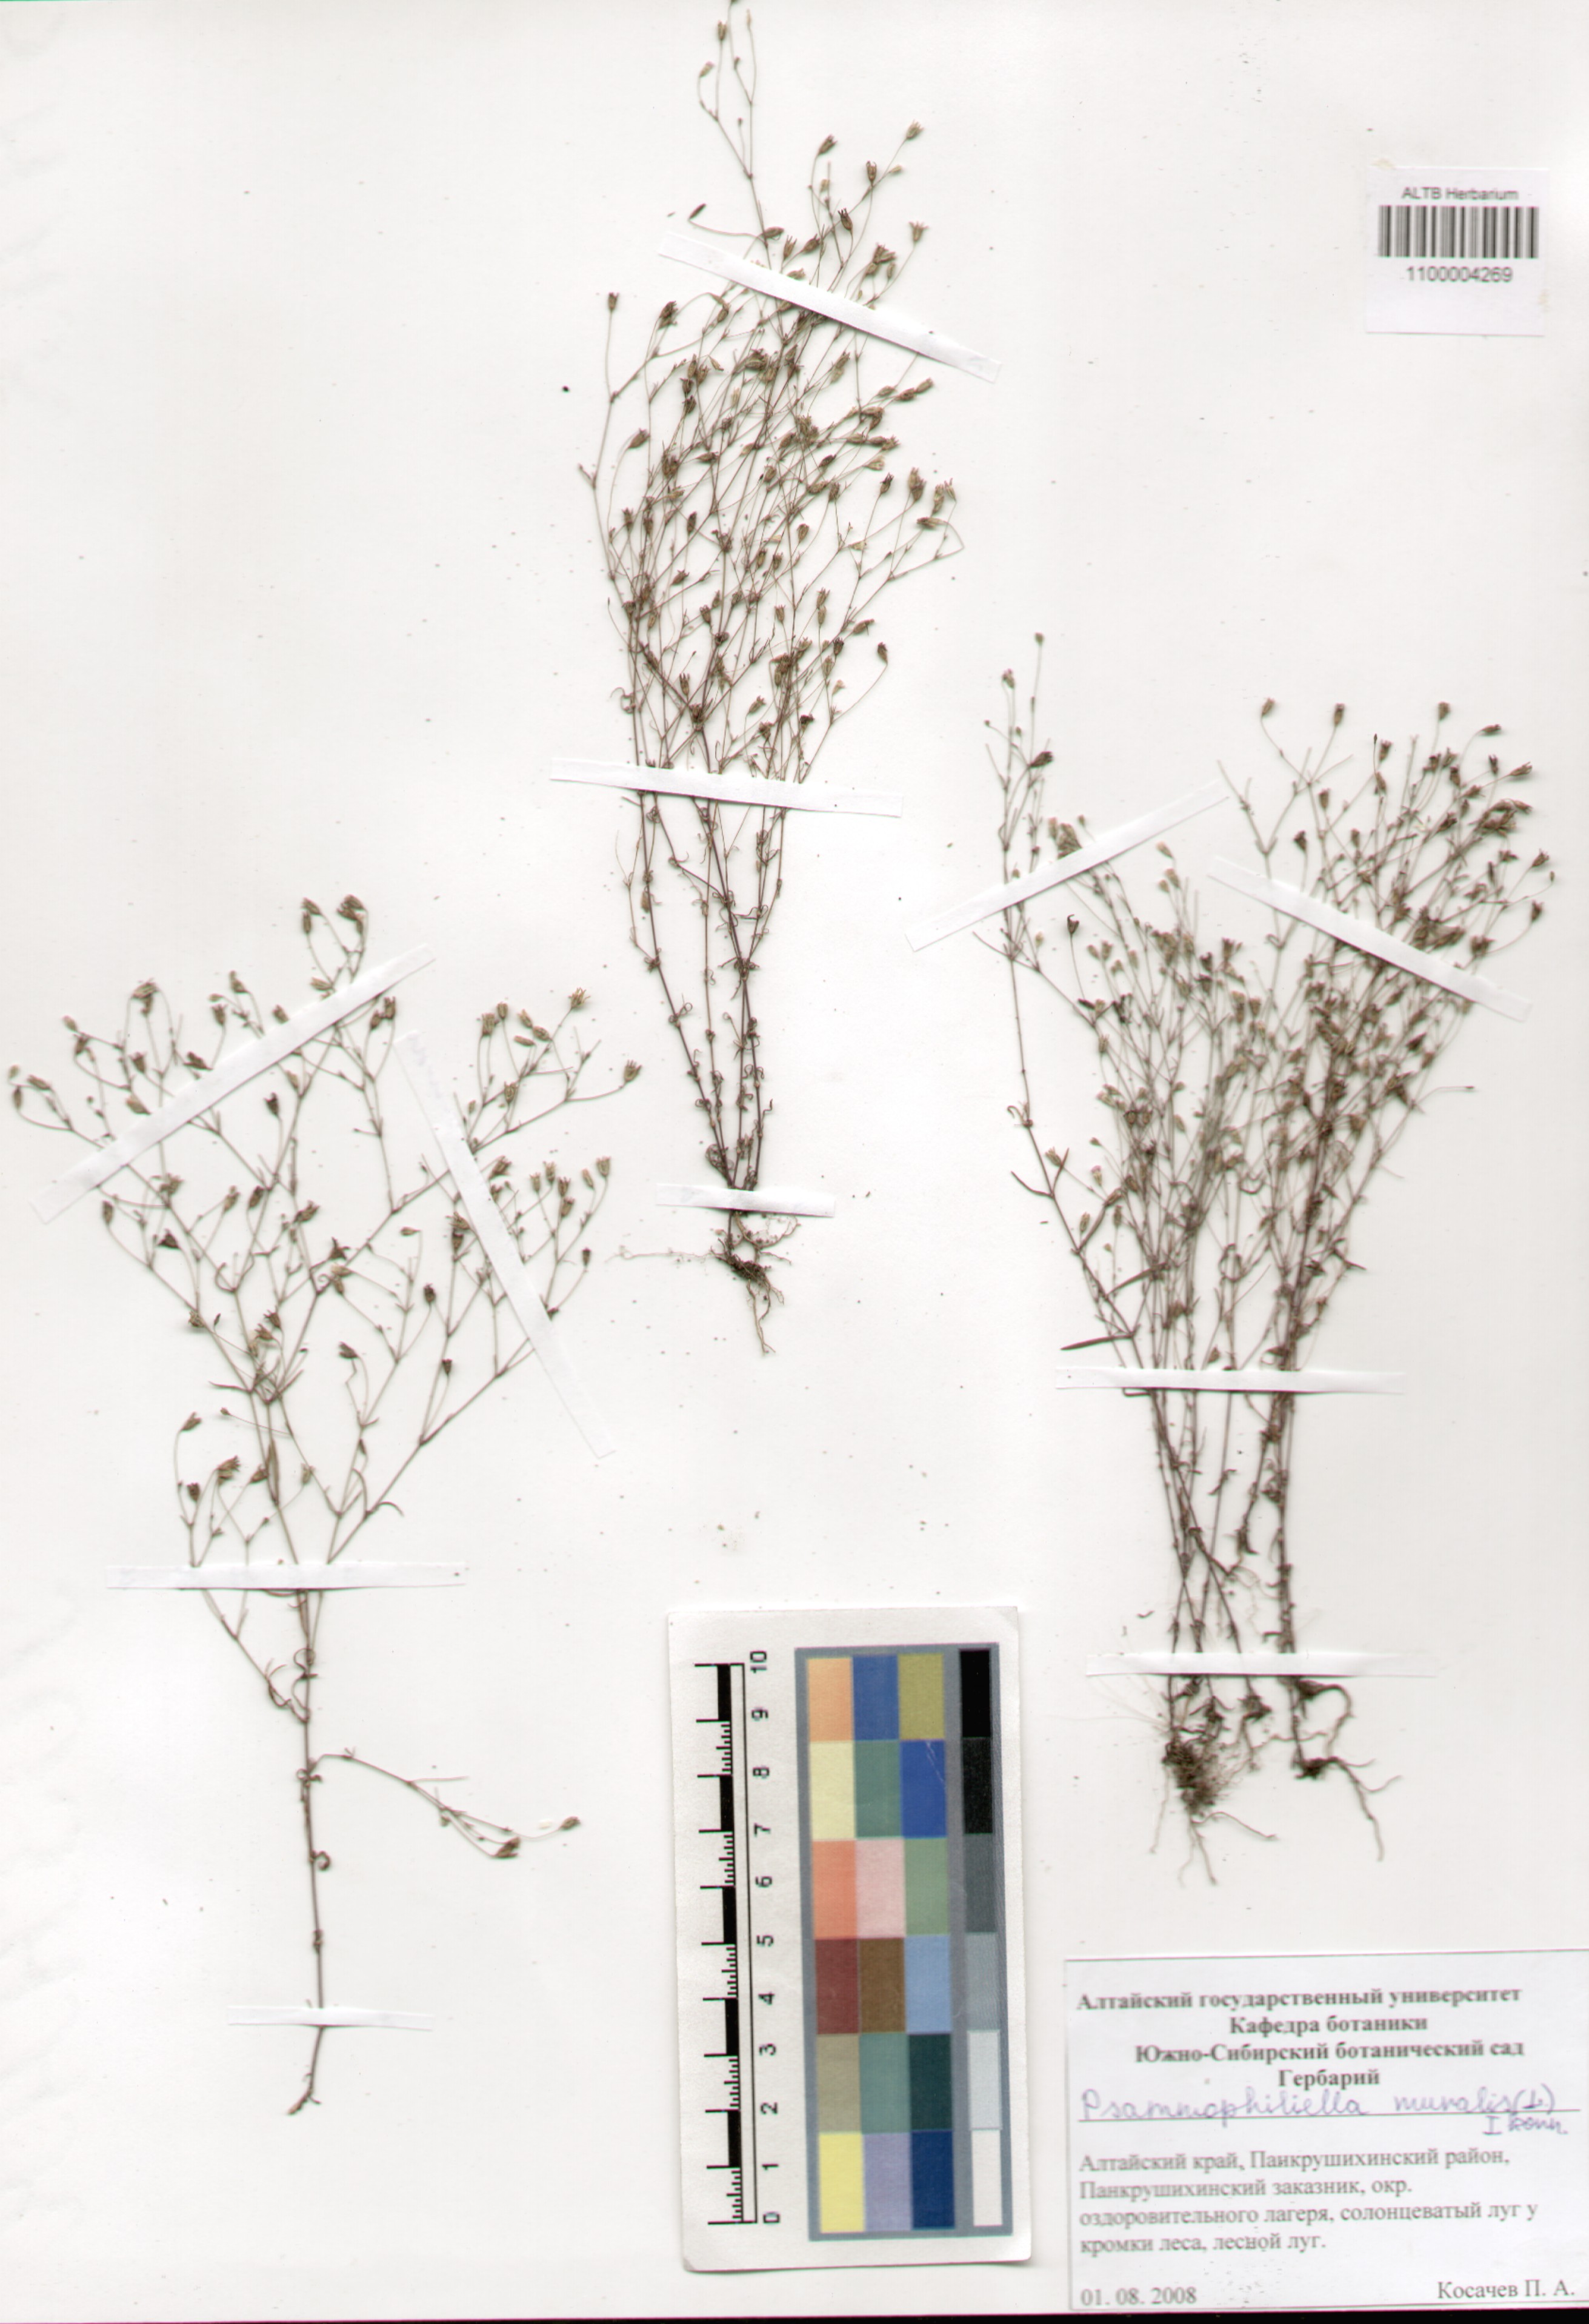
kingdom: Plantae
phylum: Tracheophyta
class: Magnoliopsida
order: Caryophyllales
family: Caryophyllaceae
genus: Psammophiliella
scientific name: Psammophiliella muralis
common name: Cushion baby's-breath
